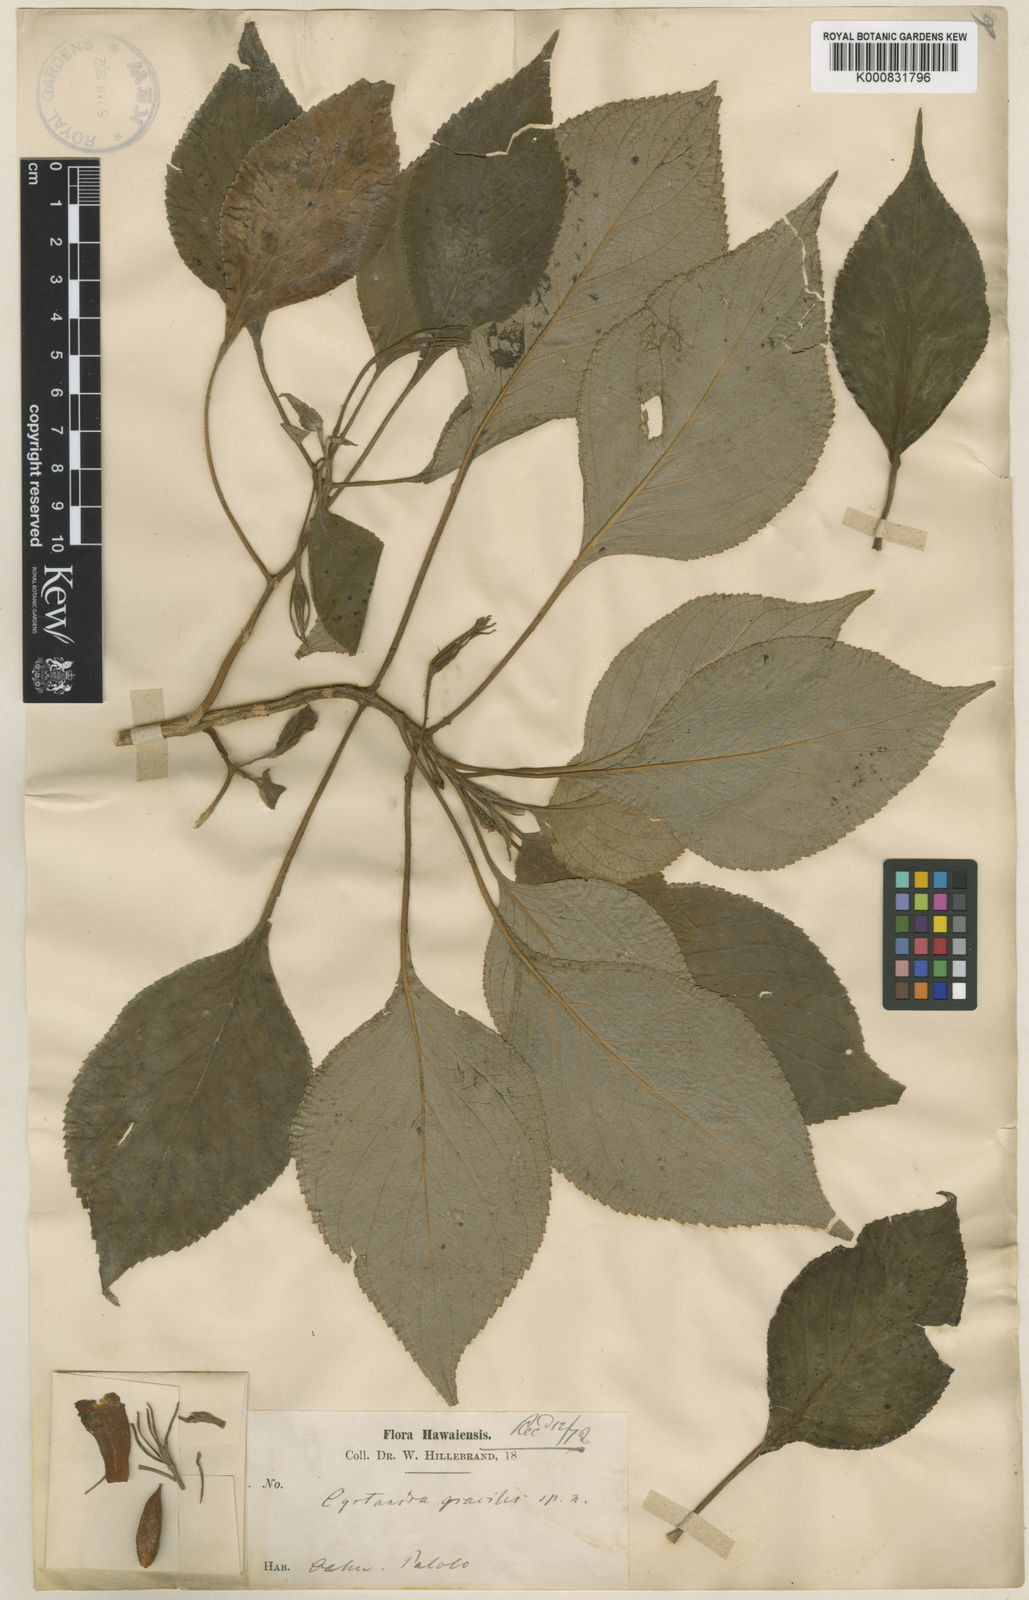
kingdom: Plantae
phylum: Tracheophyta
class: Magnoliopsida
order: Lamiales
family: Gesneriaceae
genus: Cyrtandra
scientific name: Cyrtandra gracilis
